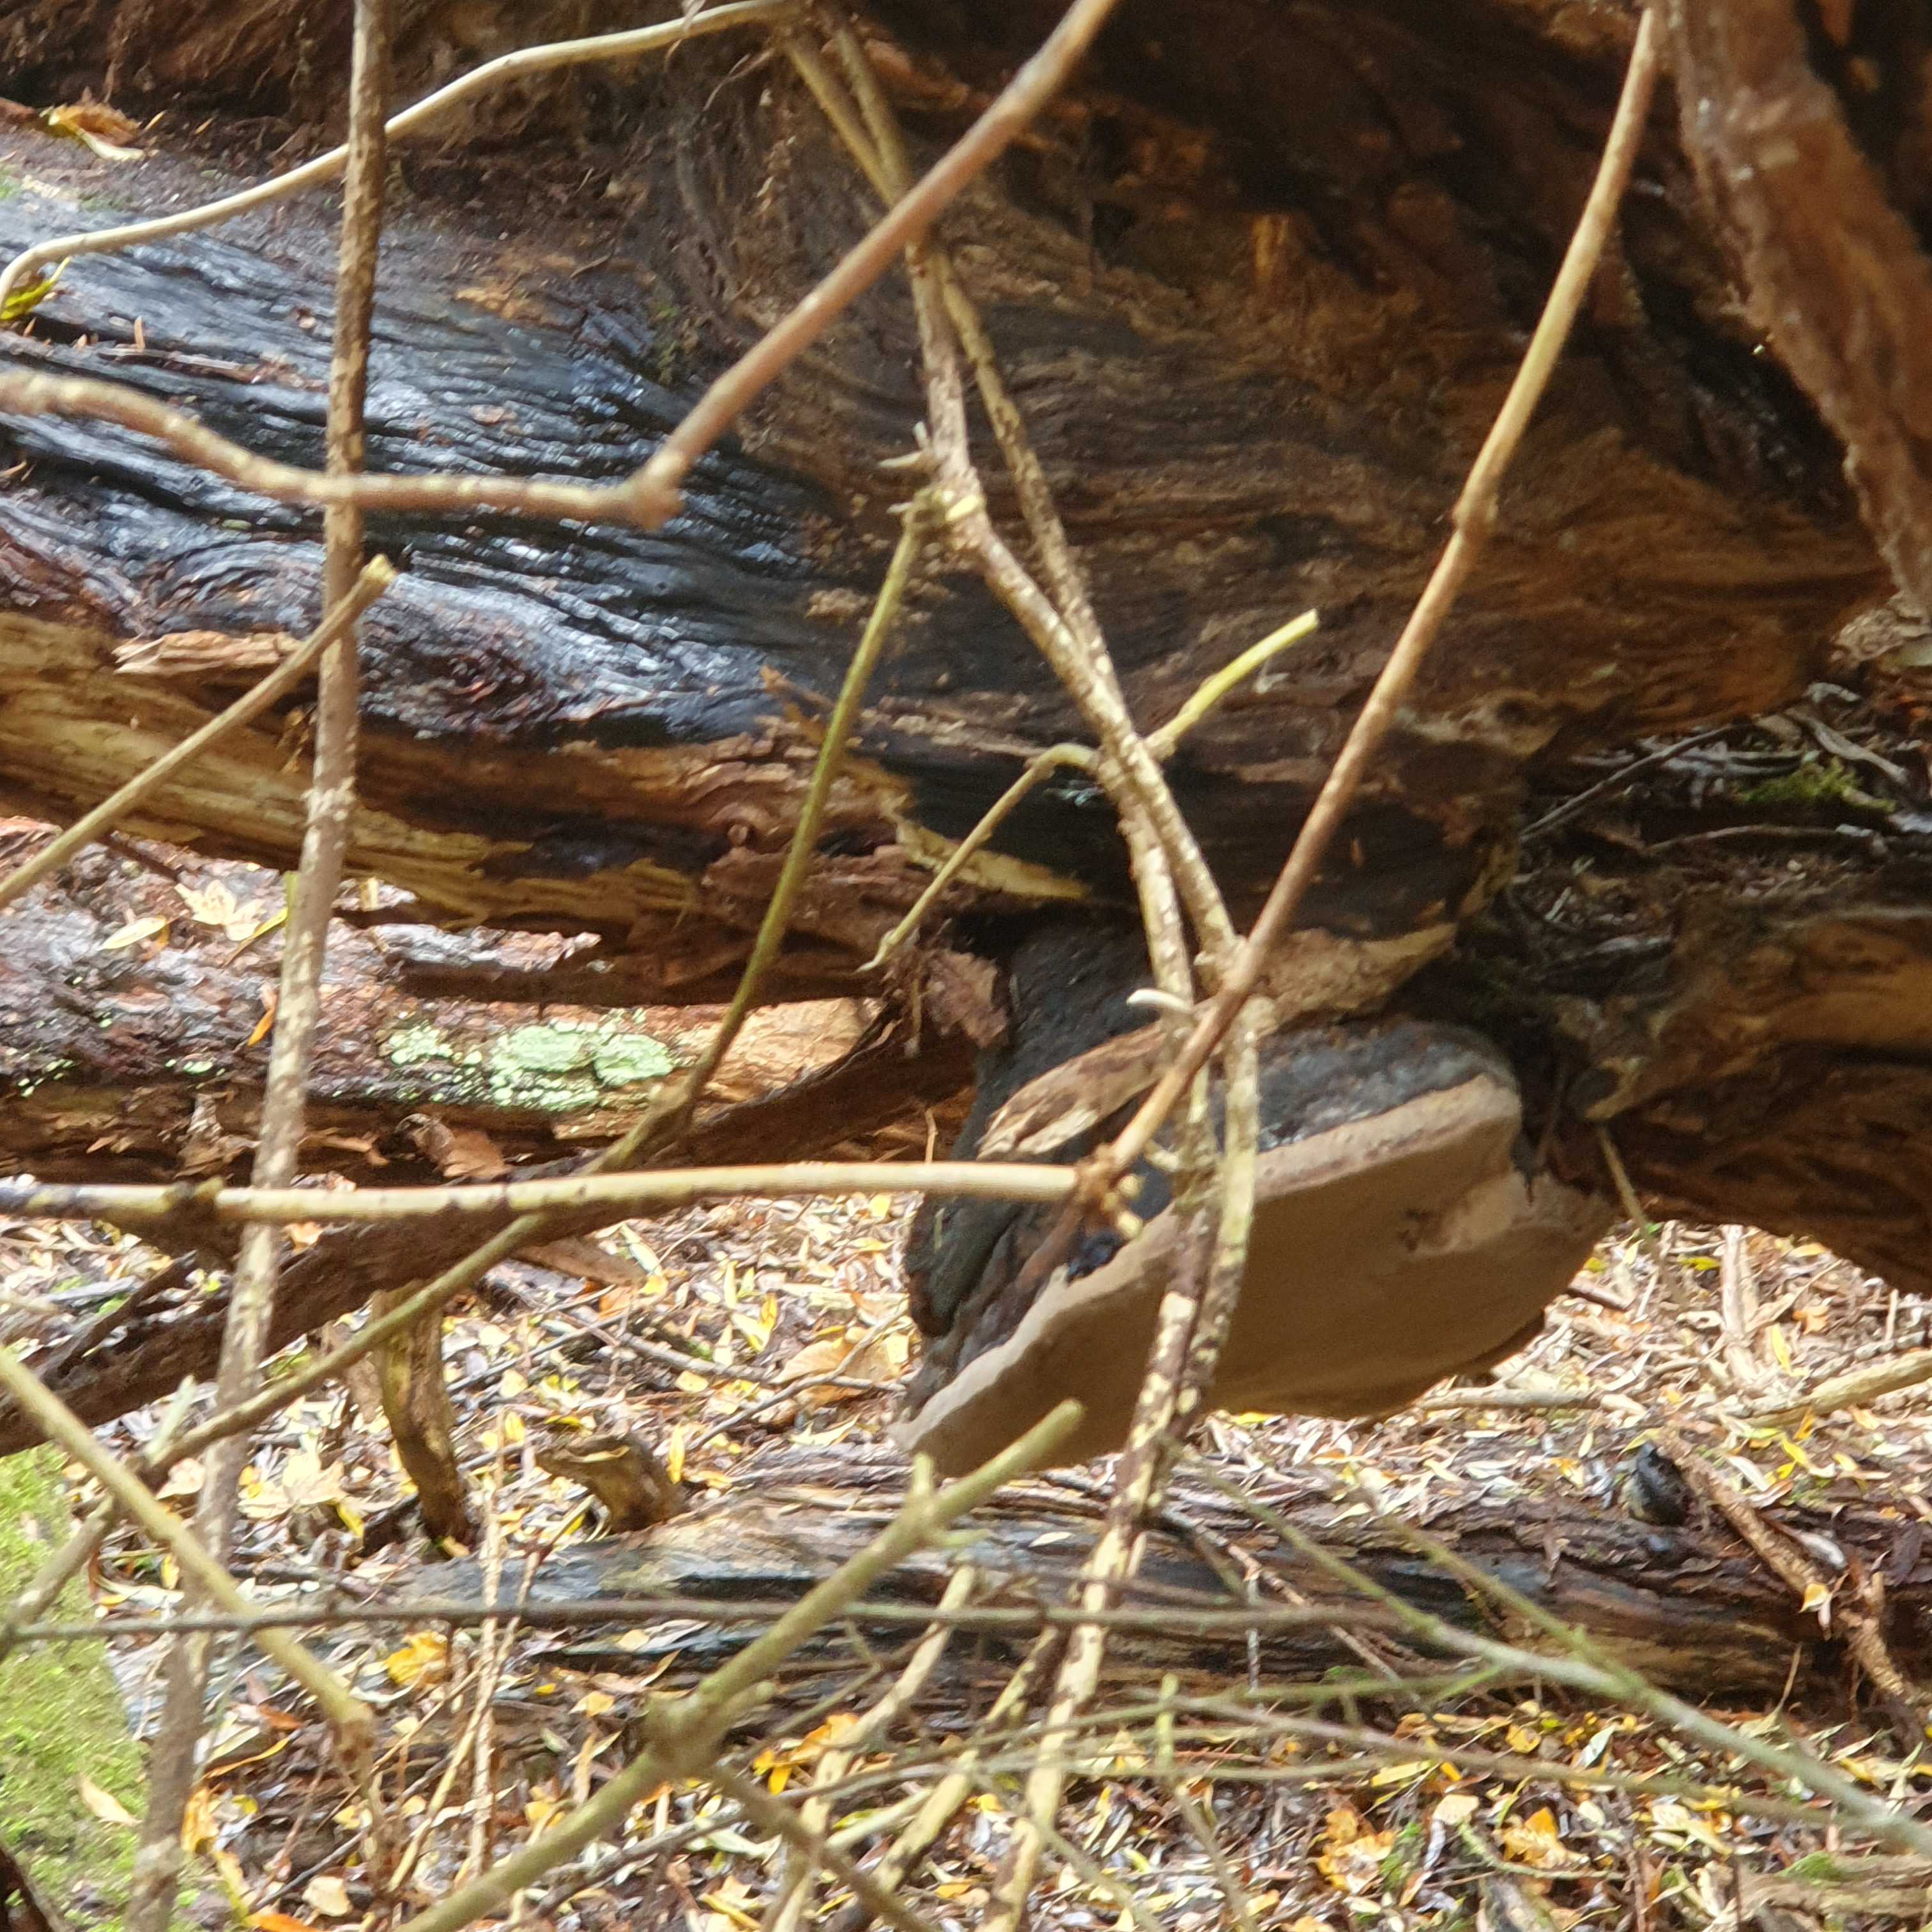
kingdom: Fungi
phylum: Basidiomycota
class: Agaricomycetes
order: Hymenochaetales
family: Hymenochaetaceae
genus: Phellinus
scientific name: Phellinus igniarius
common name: almindelig ildporesvamp
